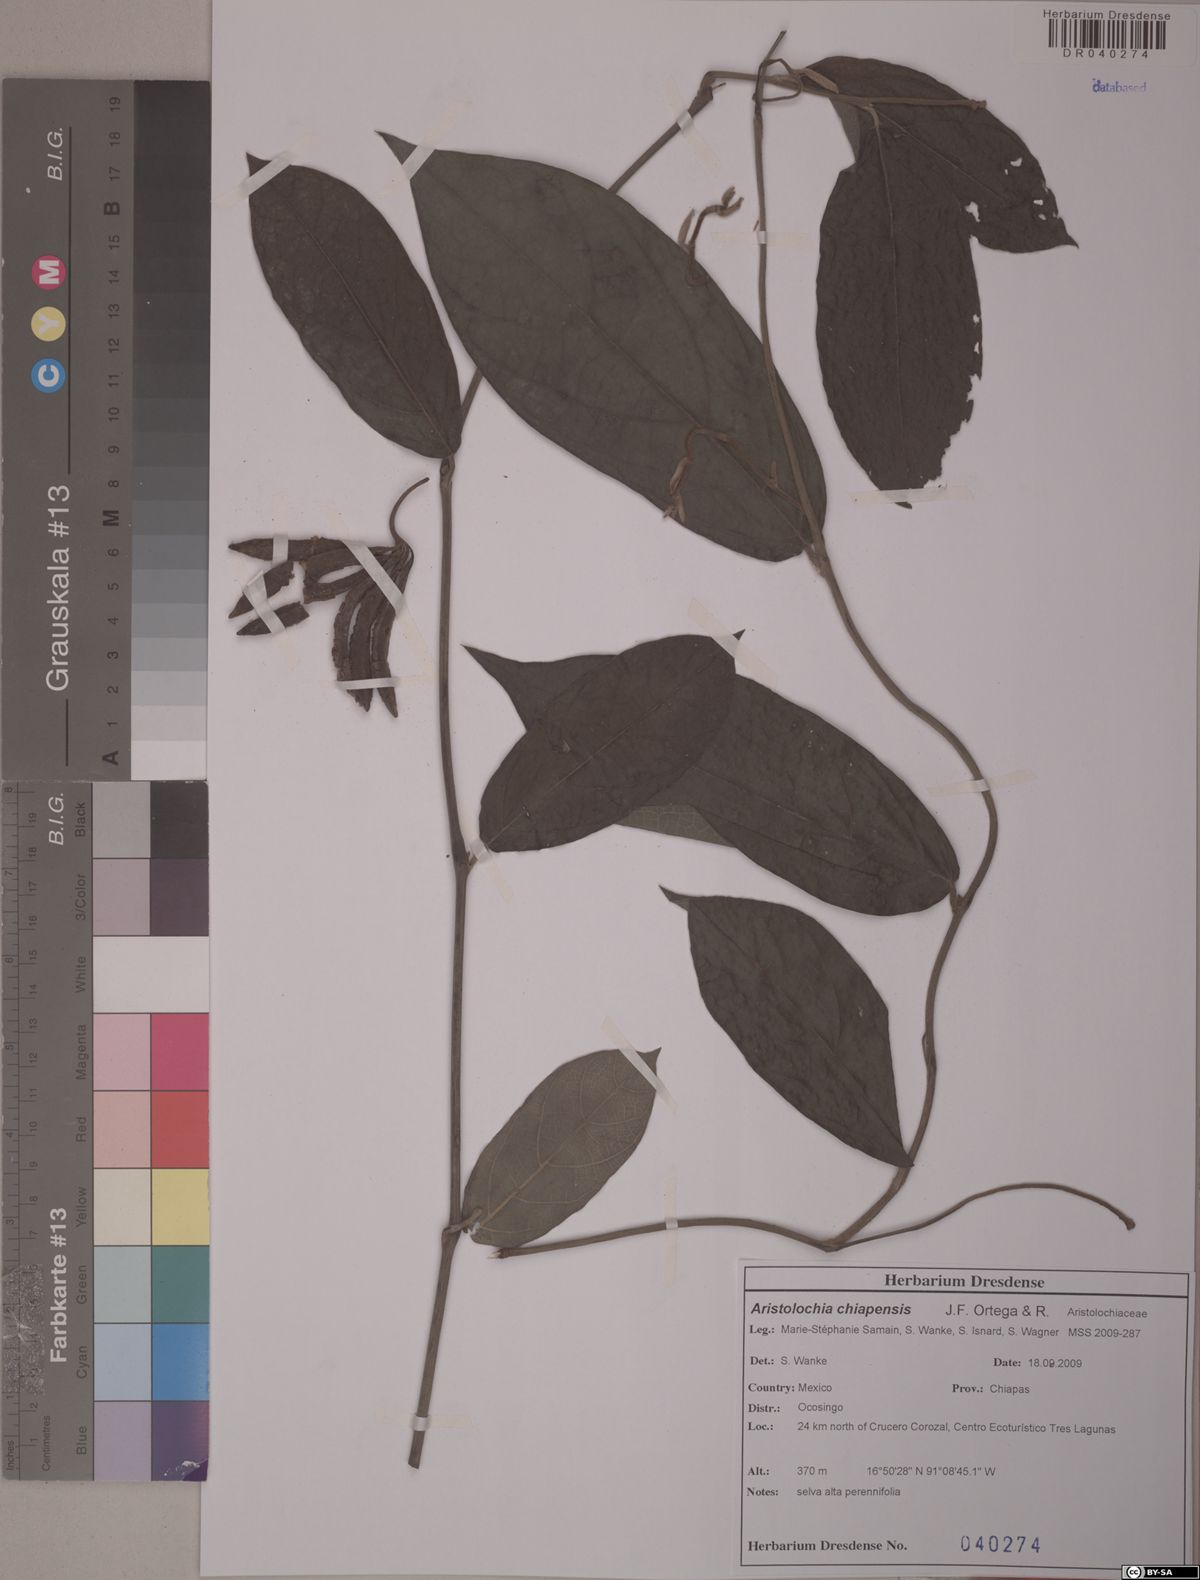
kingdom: Plantae
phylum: Tracheophyta
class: Magnoliopsida
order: Piperales
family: Aristolochiaceae
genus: Isotrema
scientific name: Isotrema paracletum
